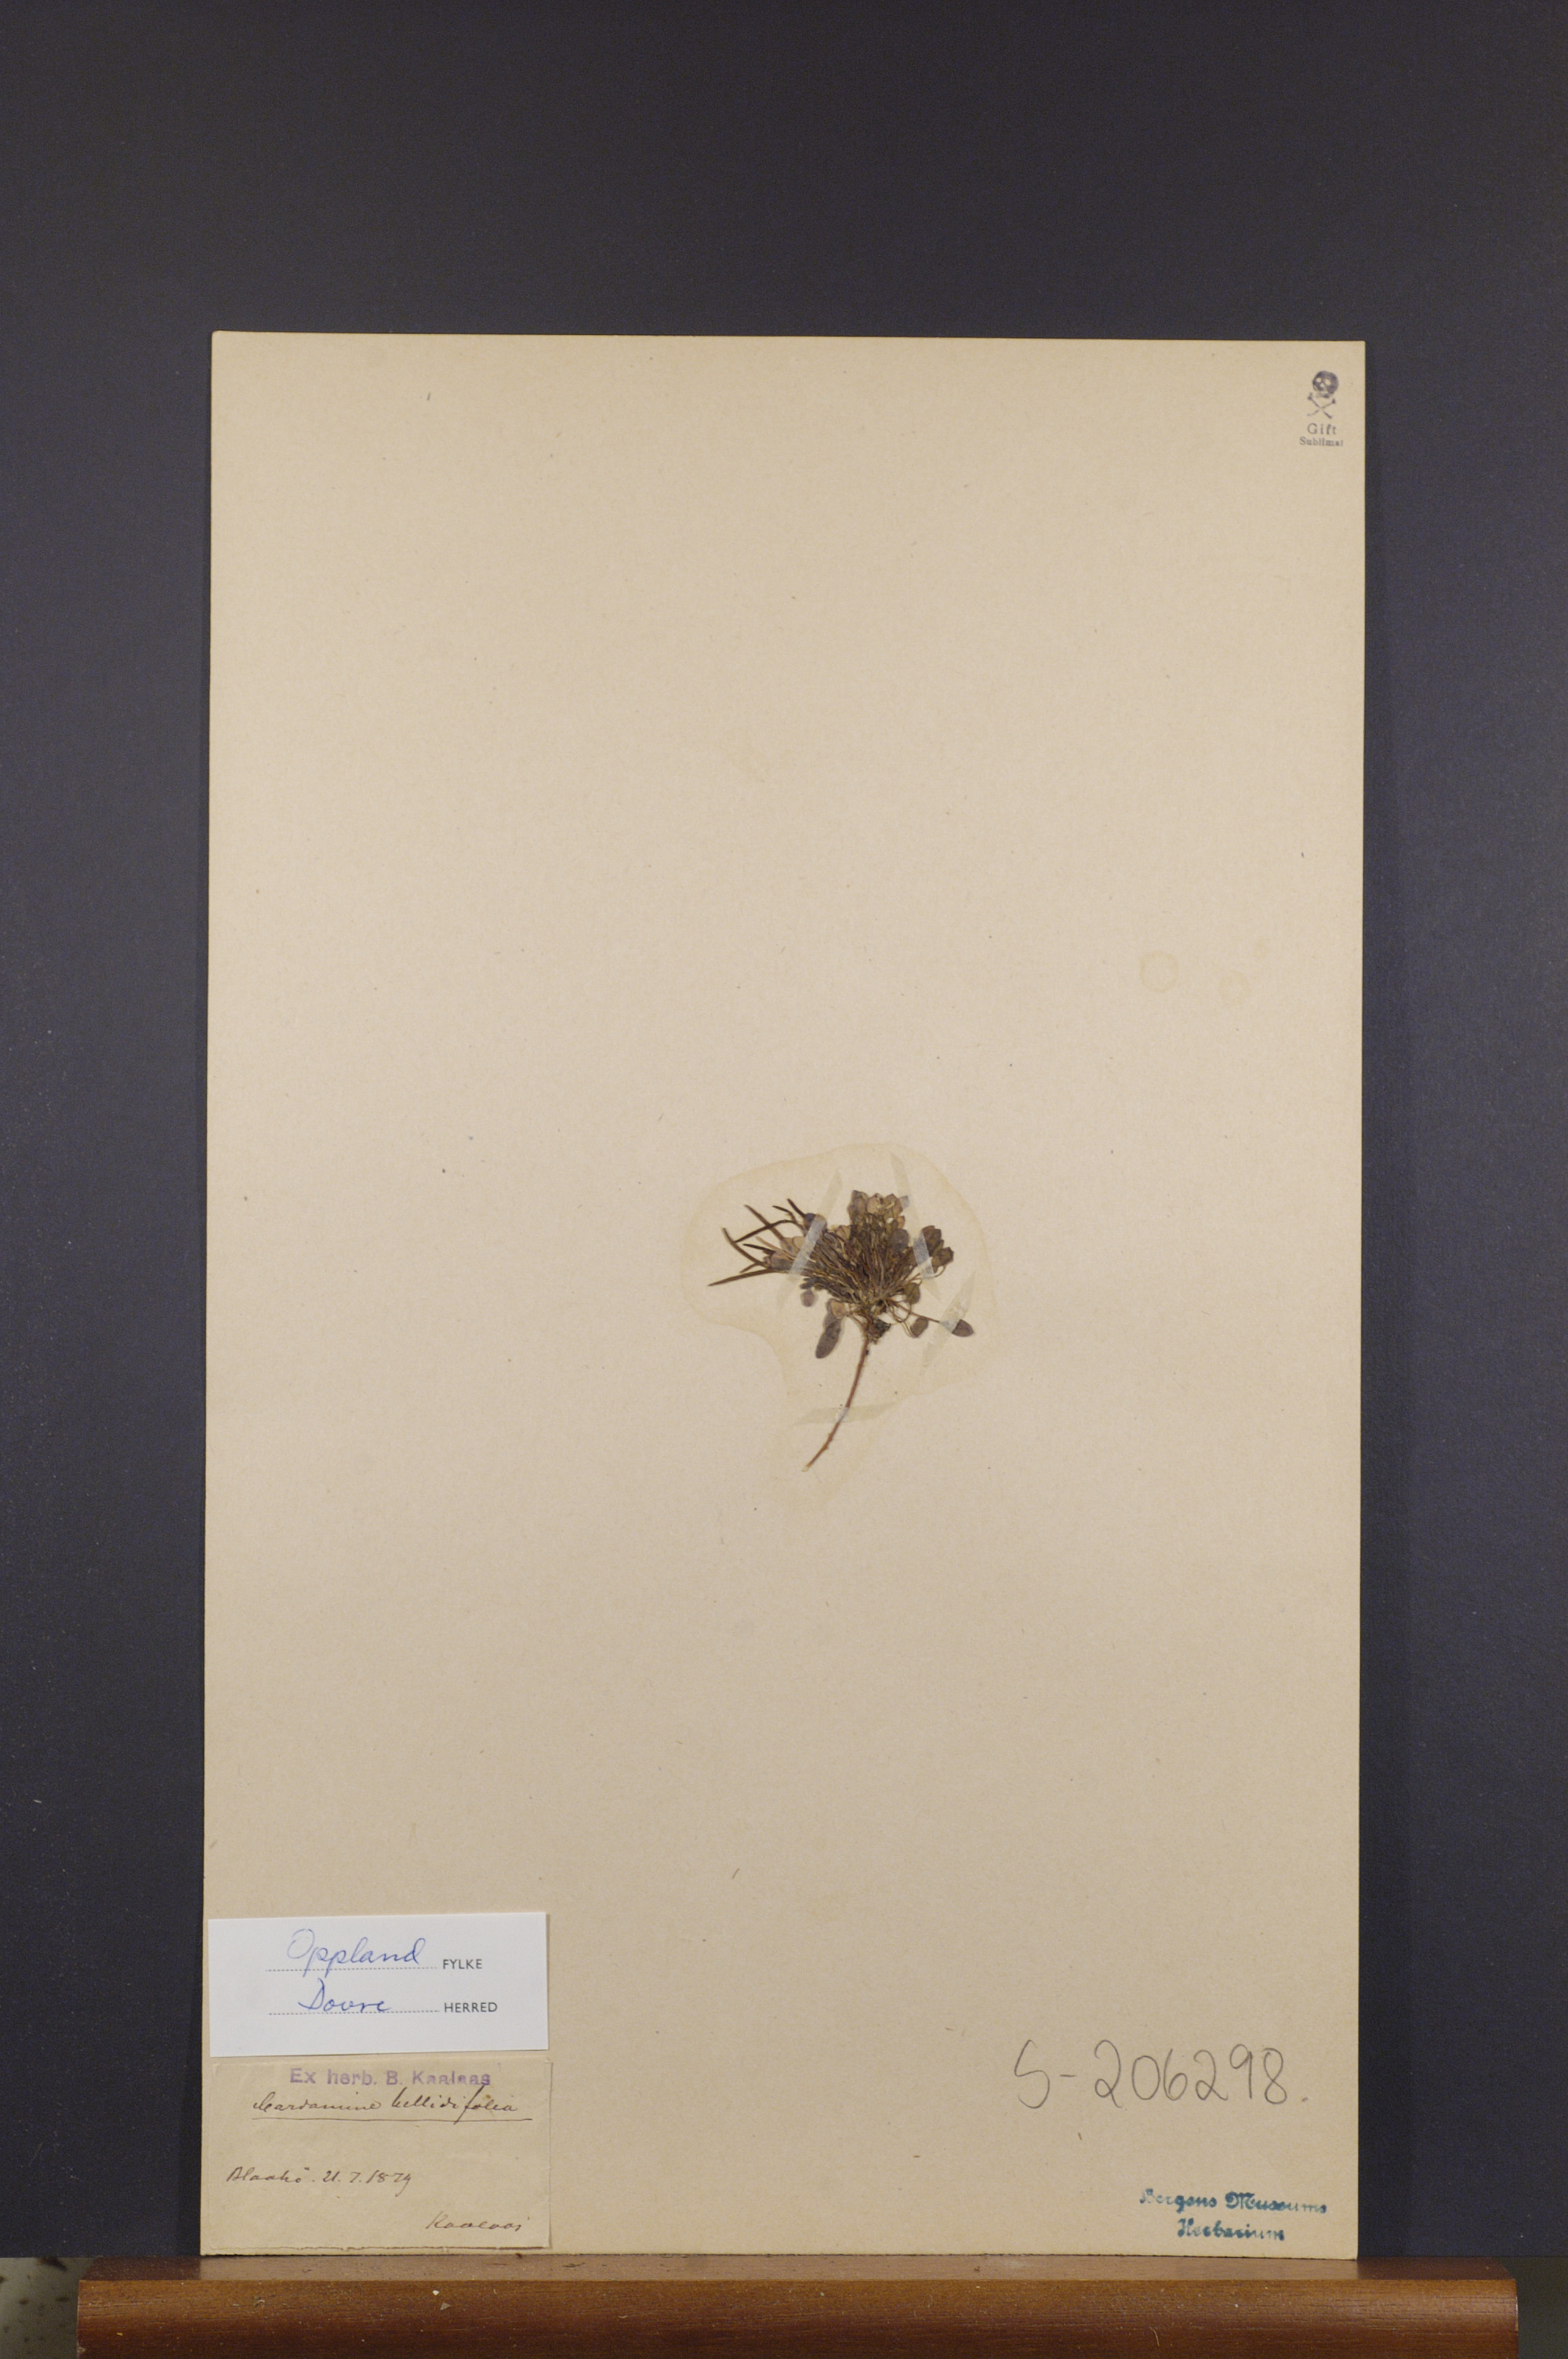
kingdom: Plantae
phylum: Tracheophyta
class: Magnoliopsida
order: Brassicales
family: Brassicaceae
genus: Cardamine
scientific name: Cardamine bellidifolia
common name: Alpine bittercress
